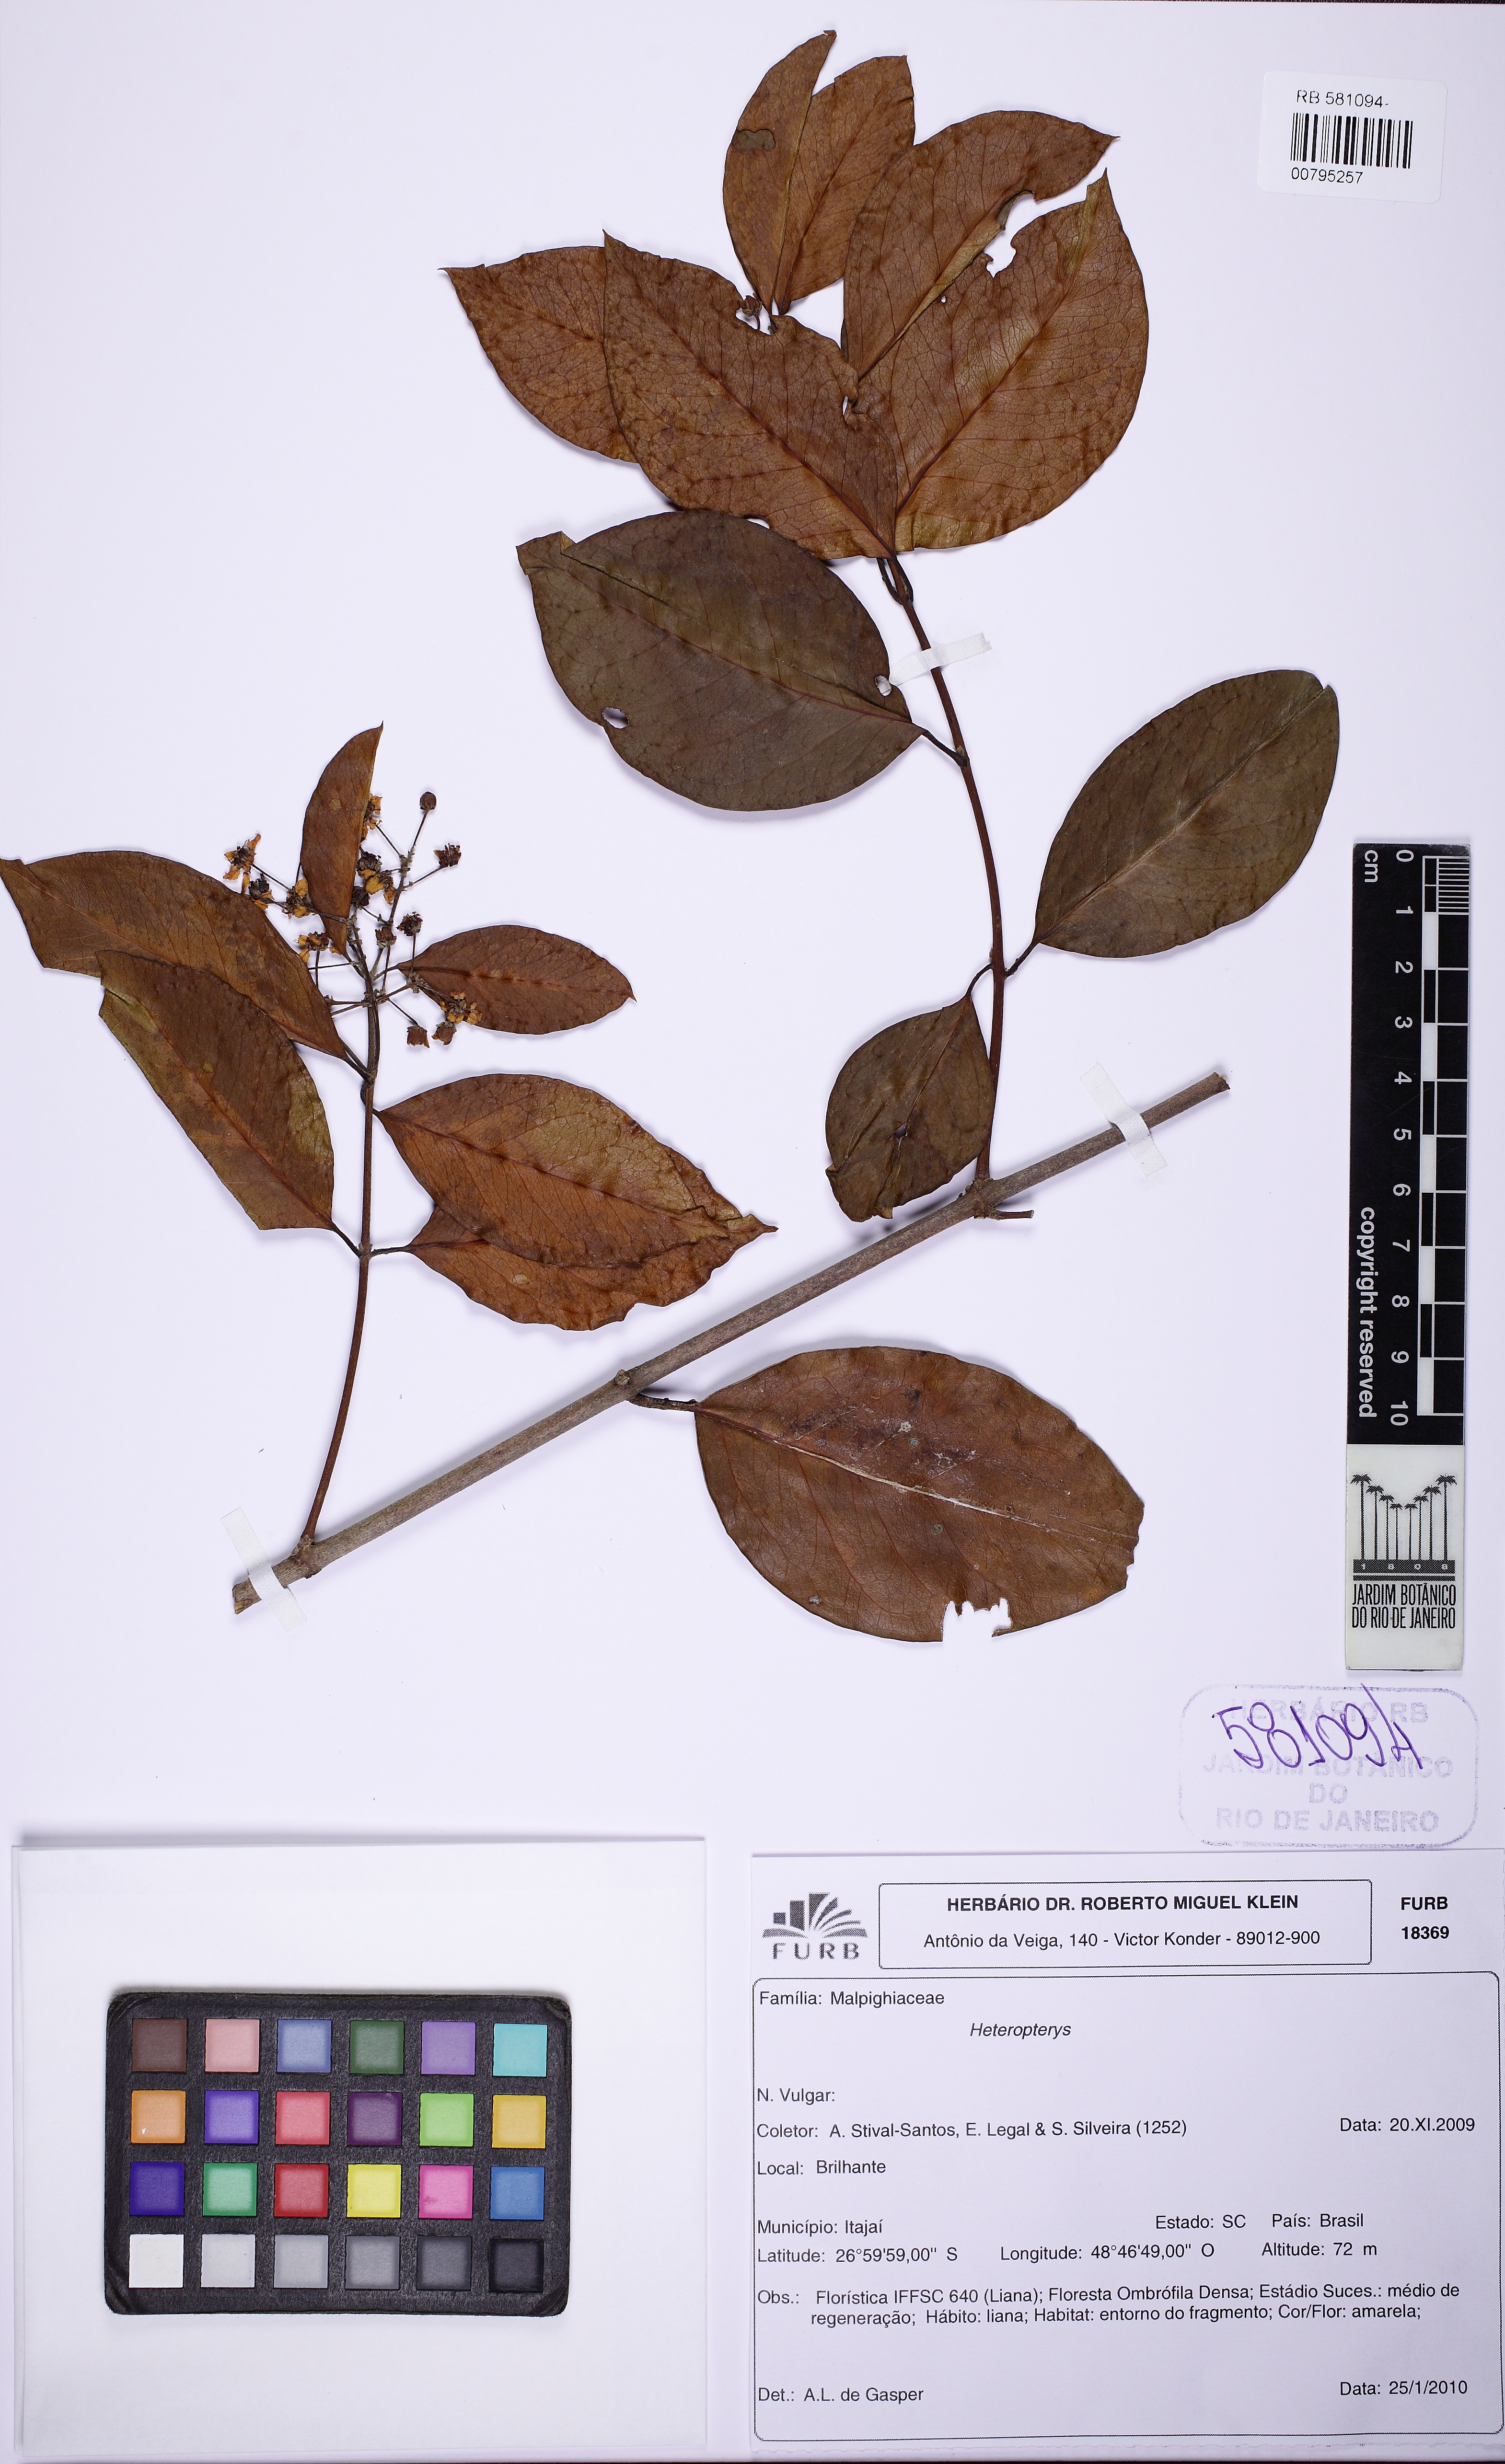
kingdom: Plantae
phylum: Tracheophyta
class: Magnoliopsida
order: Malpighiales
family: Malpighiaceae
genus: Niedenzuella
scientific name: Niedenzuella
